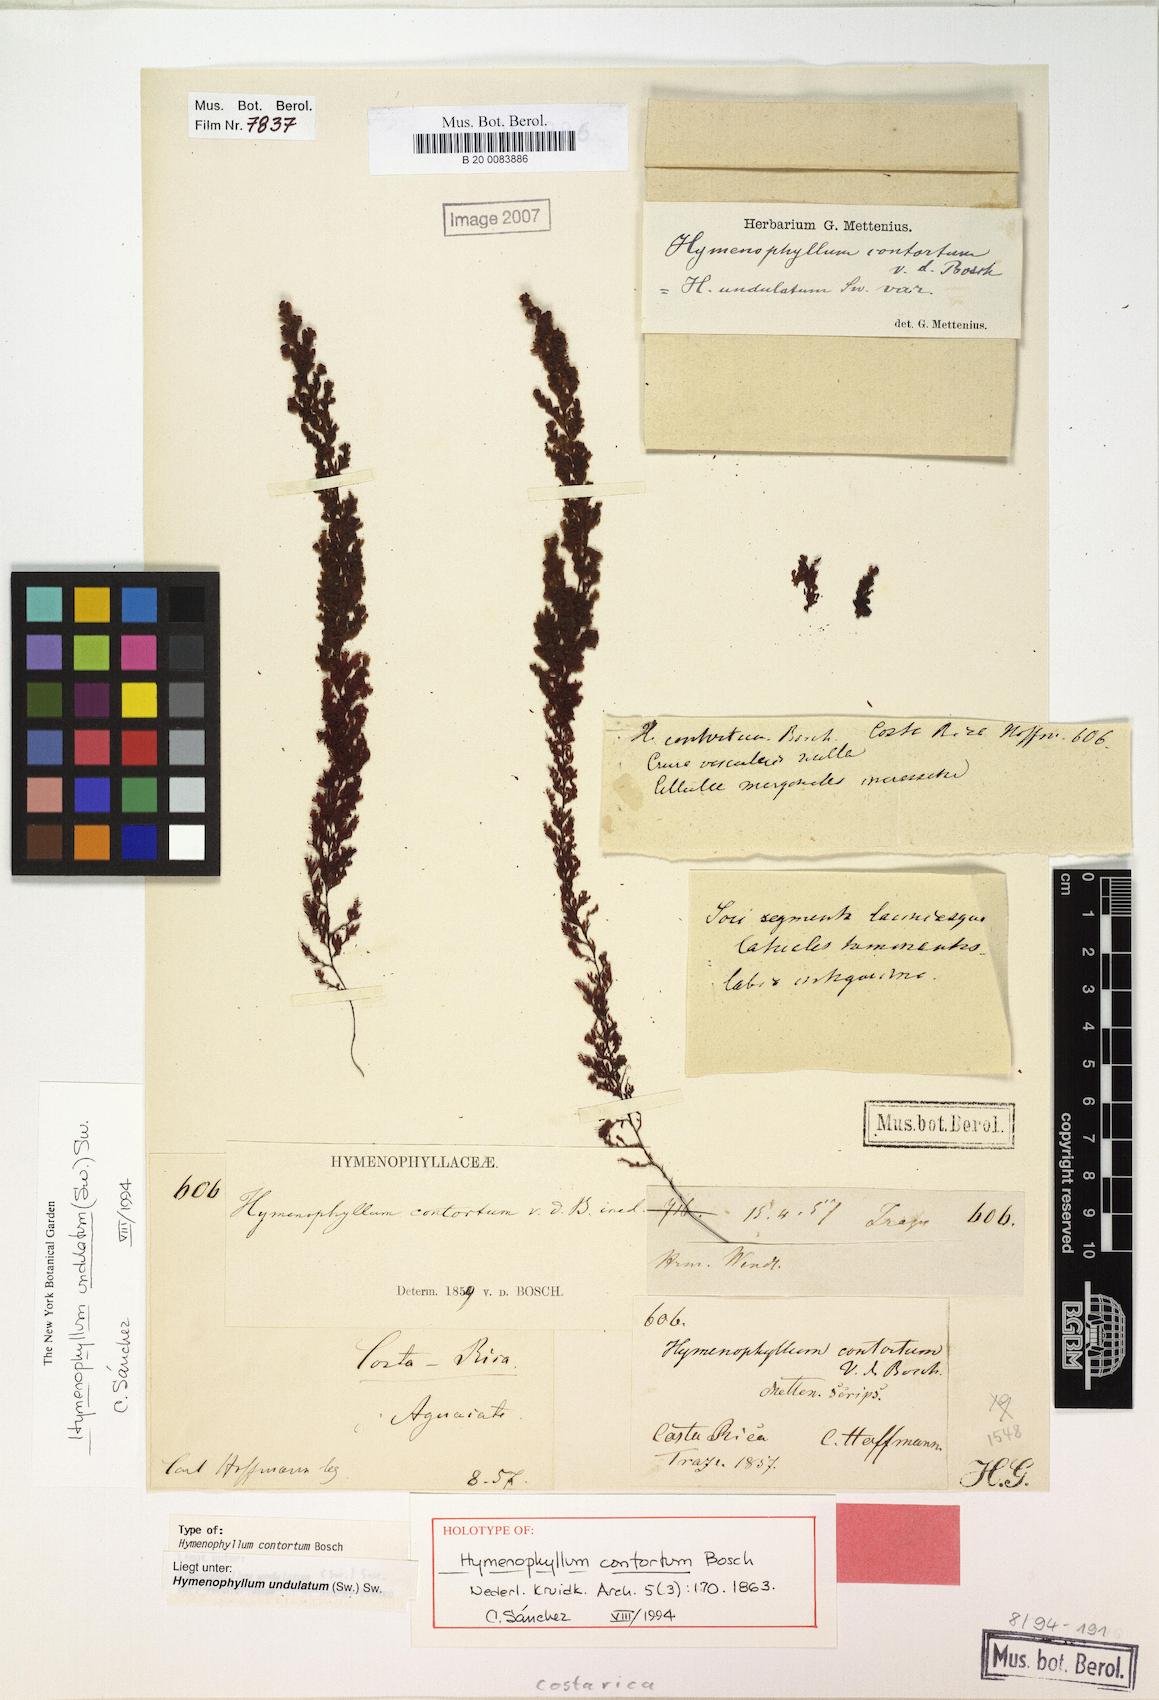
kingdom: Plantae
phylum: Tracheophyta
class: Polypodiopsida
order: Hymenophyllales
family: Hymenophyllaceae
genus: Hymenophyllum
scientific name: Hymenophyllum undulatum
